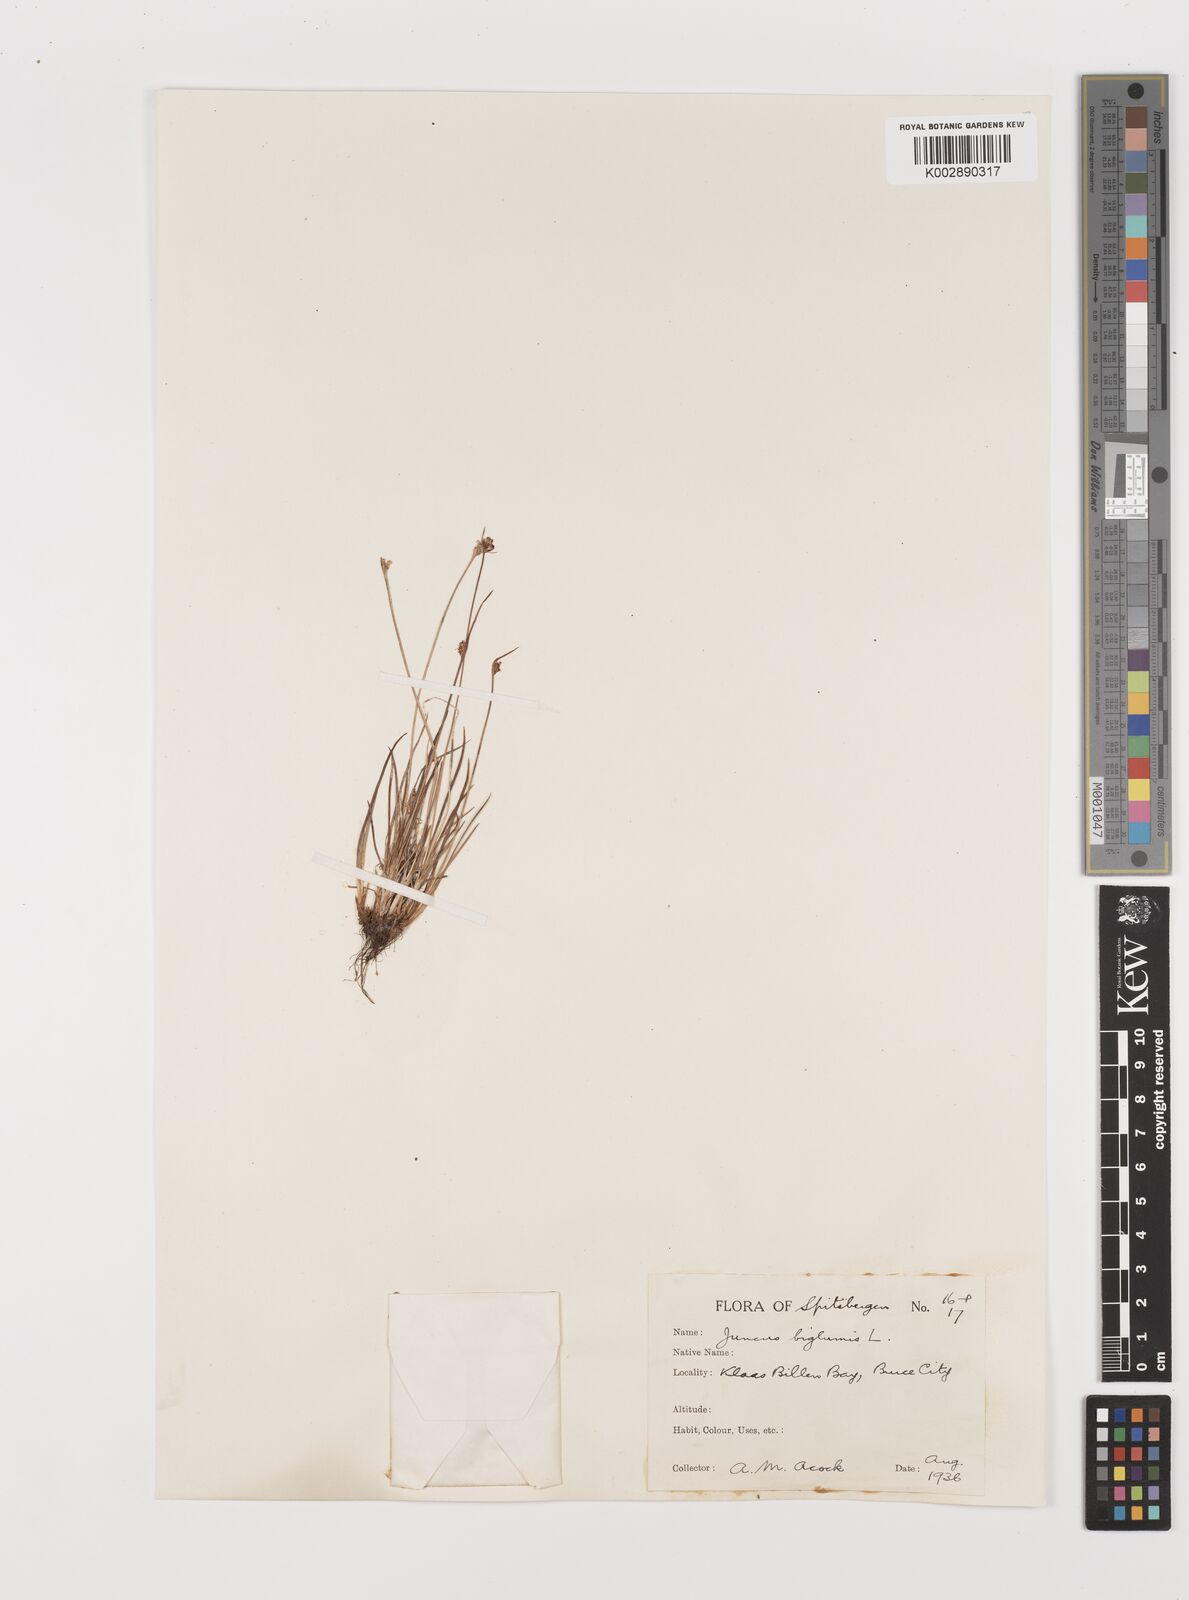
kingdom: Plantae
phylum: Tracheophyta
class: Liliopsida
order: Poales
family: Juncaceae
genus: Juncus
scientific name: Juncus biglumis
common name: Two-flowered rush
